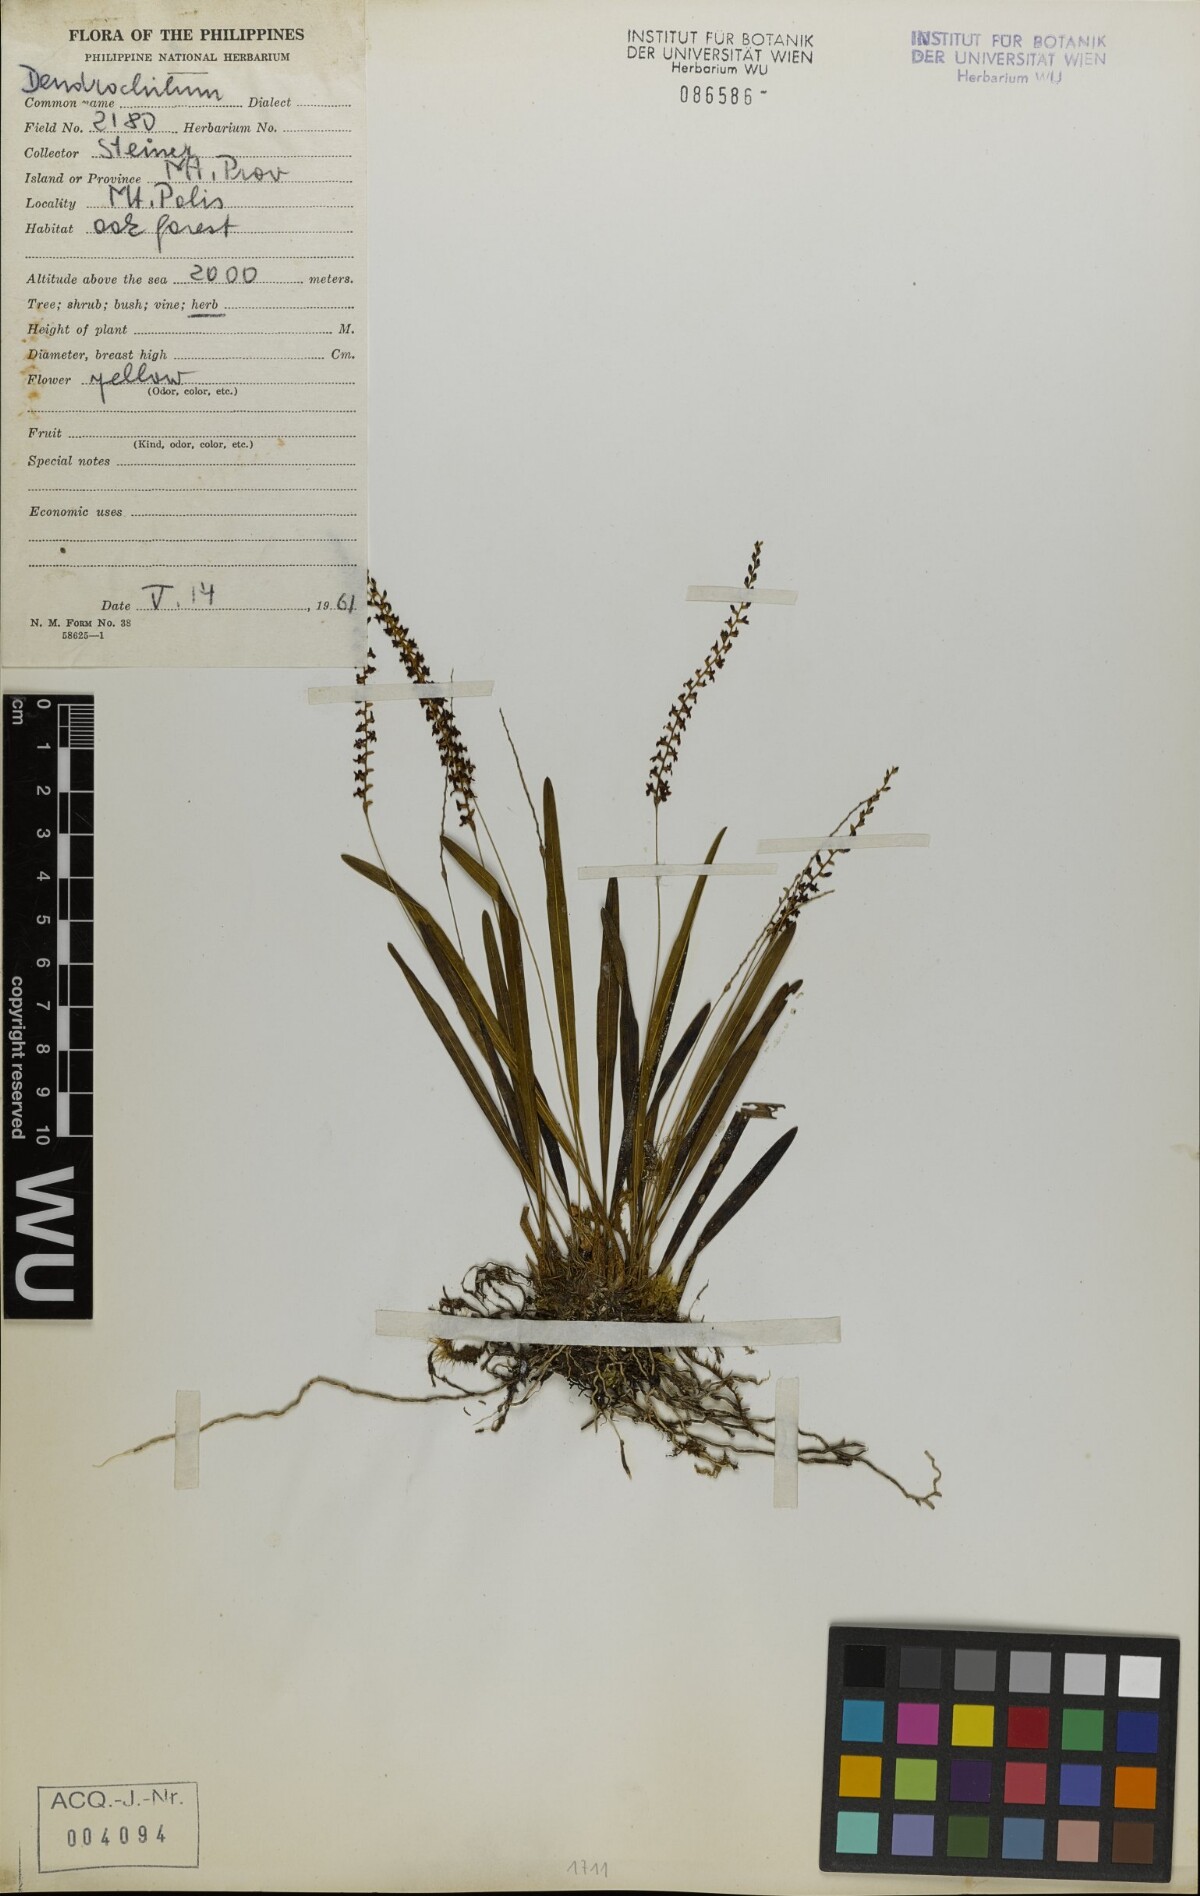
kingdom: Plantae
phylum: Tracheophyta
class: Liliopsida
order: Asparagales
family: Orchidaceae
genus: Coelogyne
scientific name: Coelogyne
